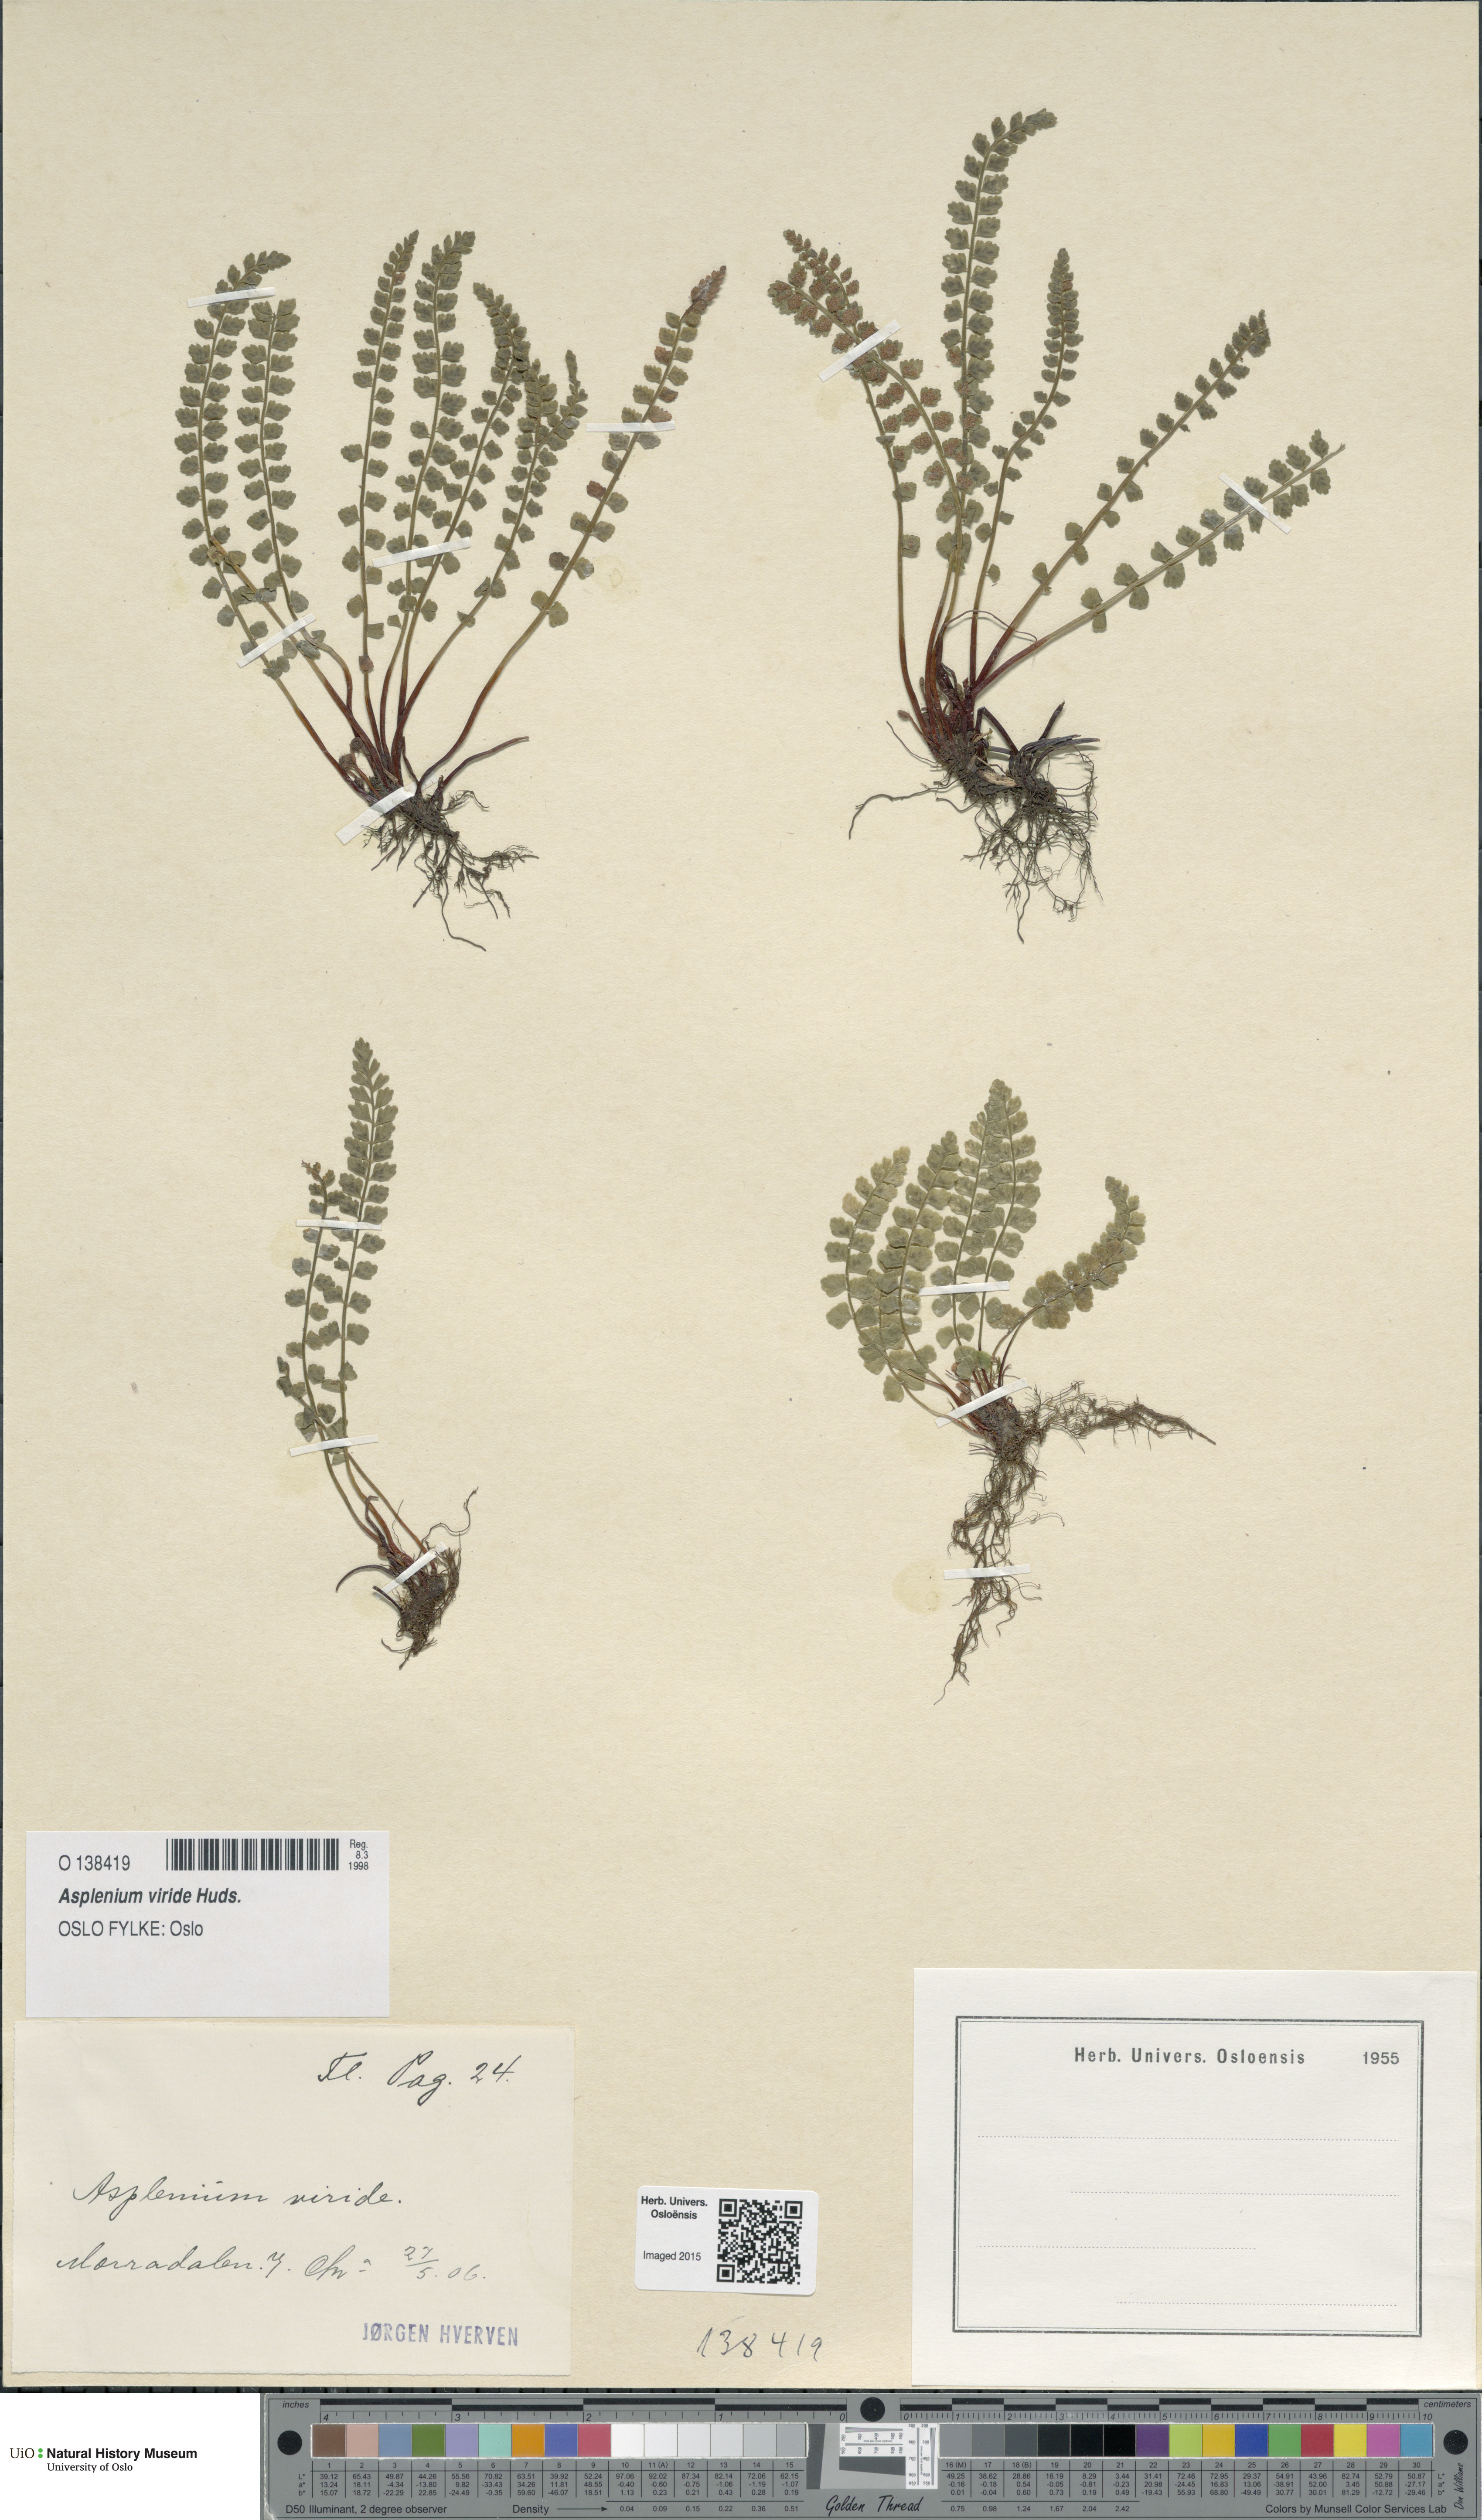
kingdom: Plantae
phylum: Tracheophyta
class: Polypodiopsida
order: Polypodiales
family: Aspleniaceae
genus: Asplenium
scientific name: Asplenium viride
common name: Green spleenwort
